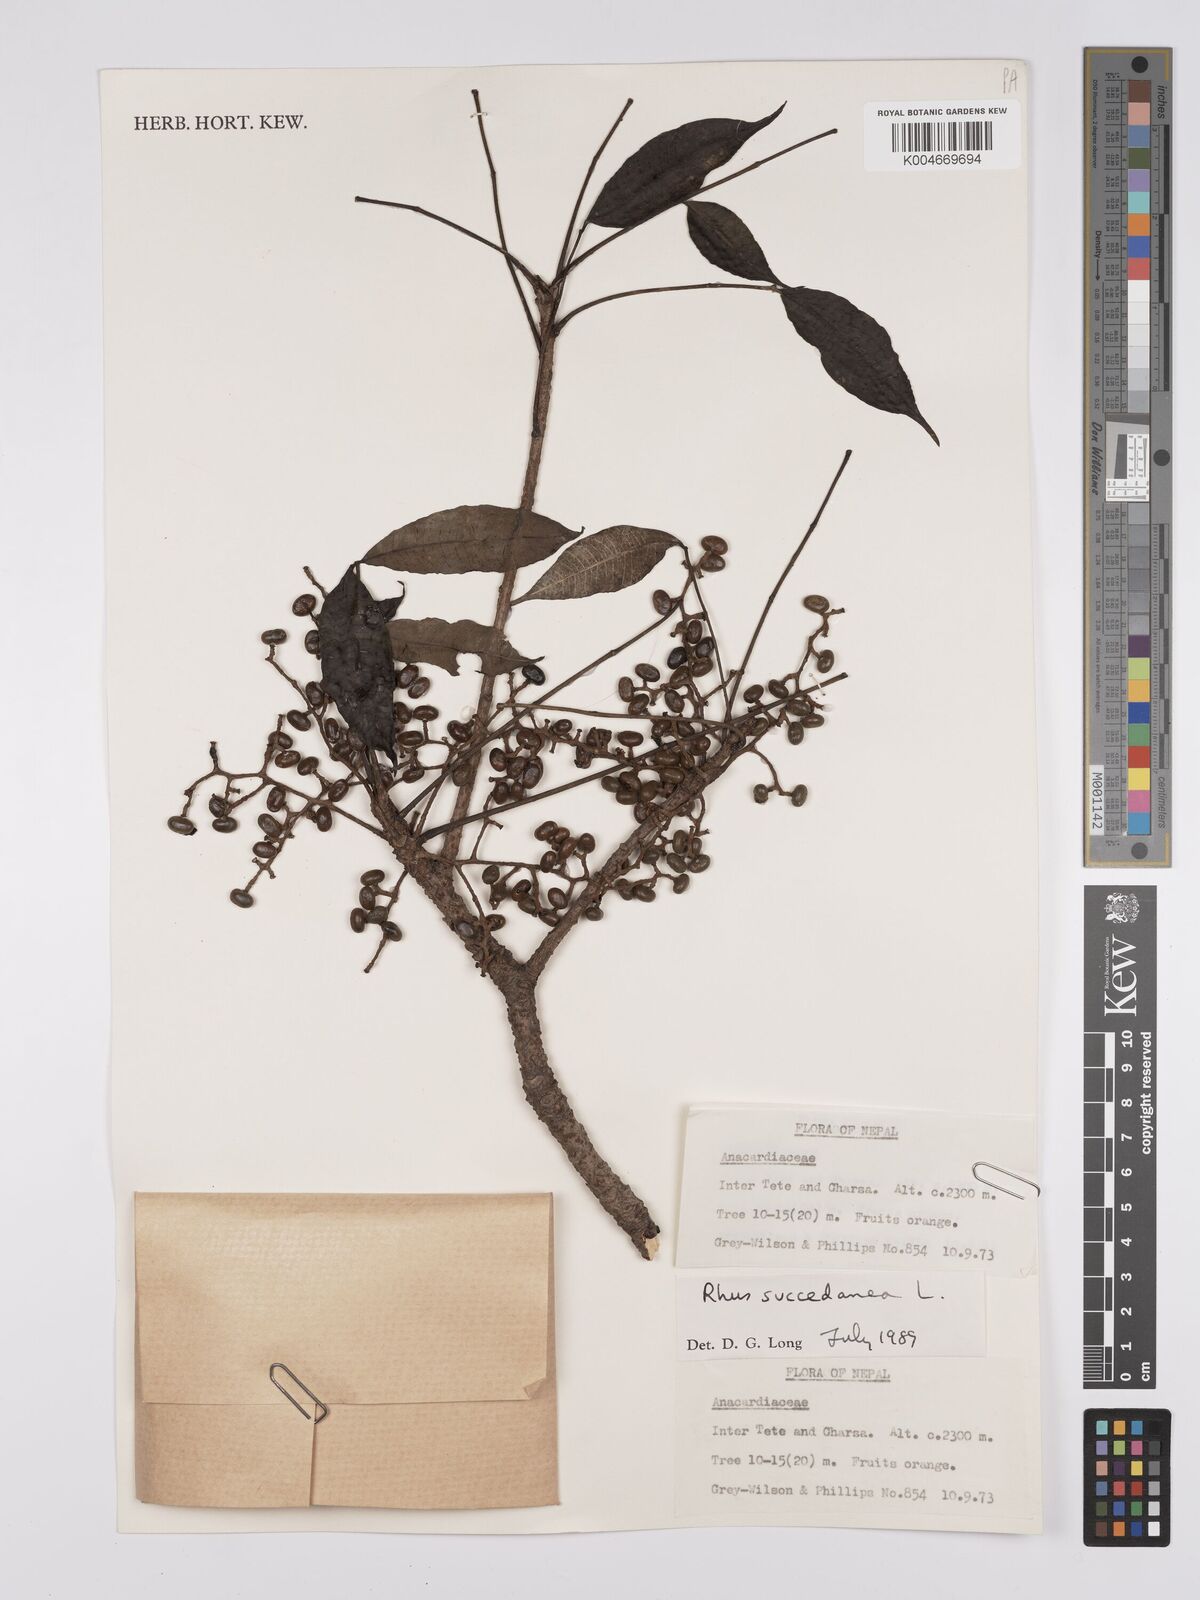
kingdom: Plantae
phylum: Tracheophyta
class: Magnoliopsida
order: Sapindales
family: Anacardiaceae
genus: Toxicodendron
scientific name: Toxicodendron succedaneum
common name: Wax tree
